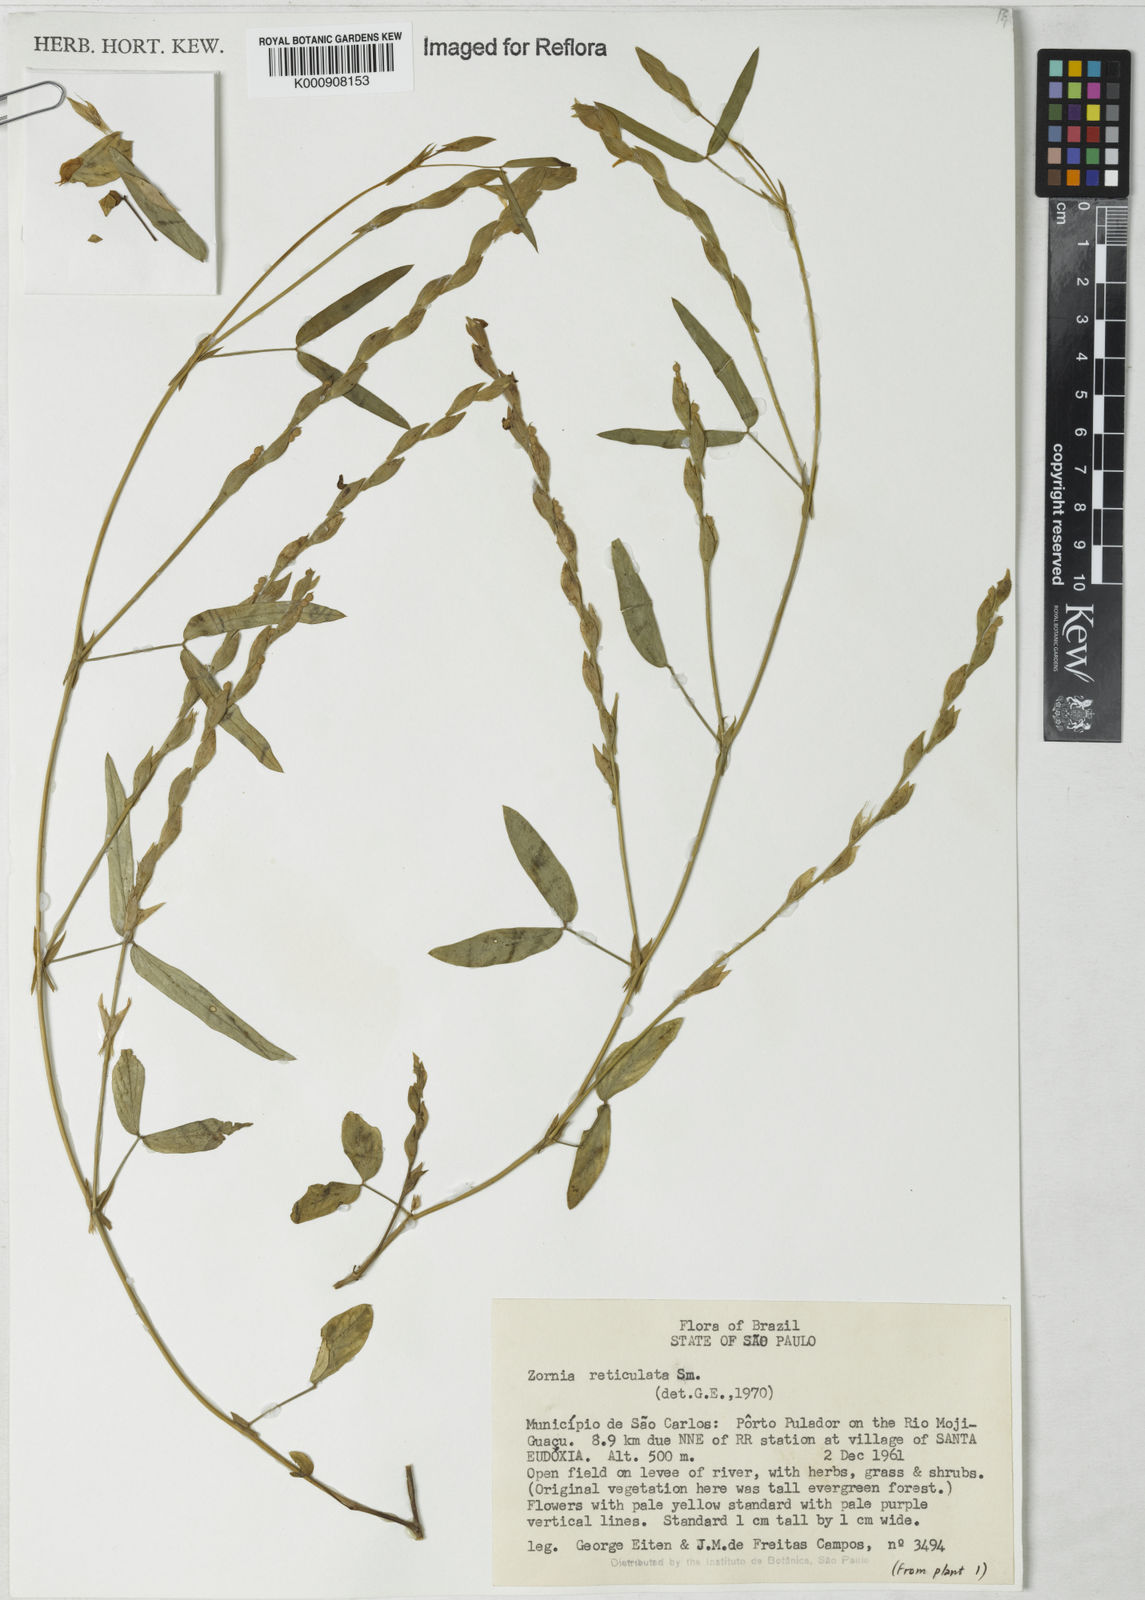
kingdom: Plantae
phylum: Tracheophyta
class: Magnoliopsida
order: Fabales
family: Fabaceae
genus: Zornia
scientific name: Zornia reticulata
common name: Reticulate viperina
